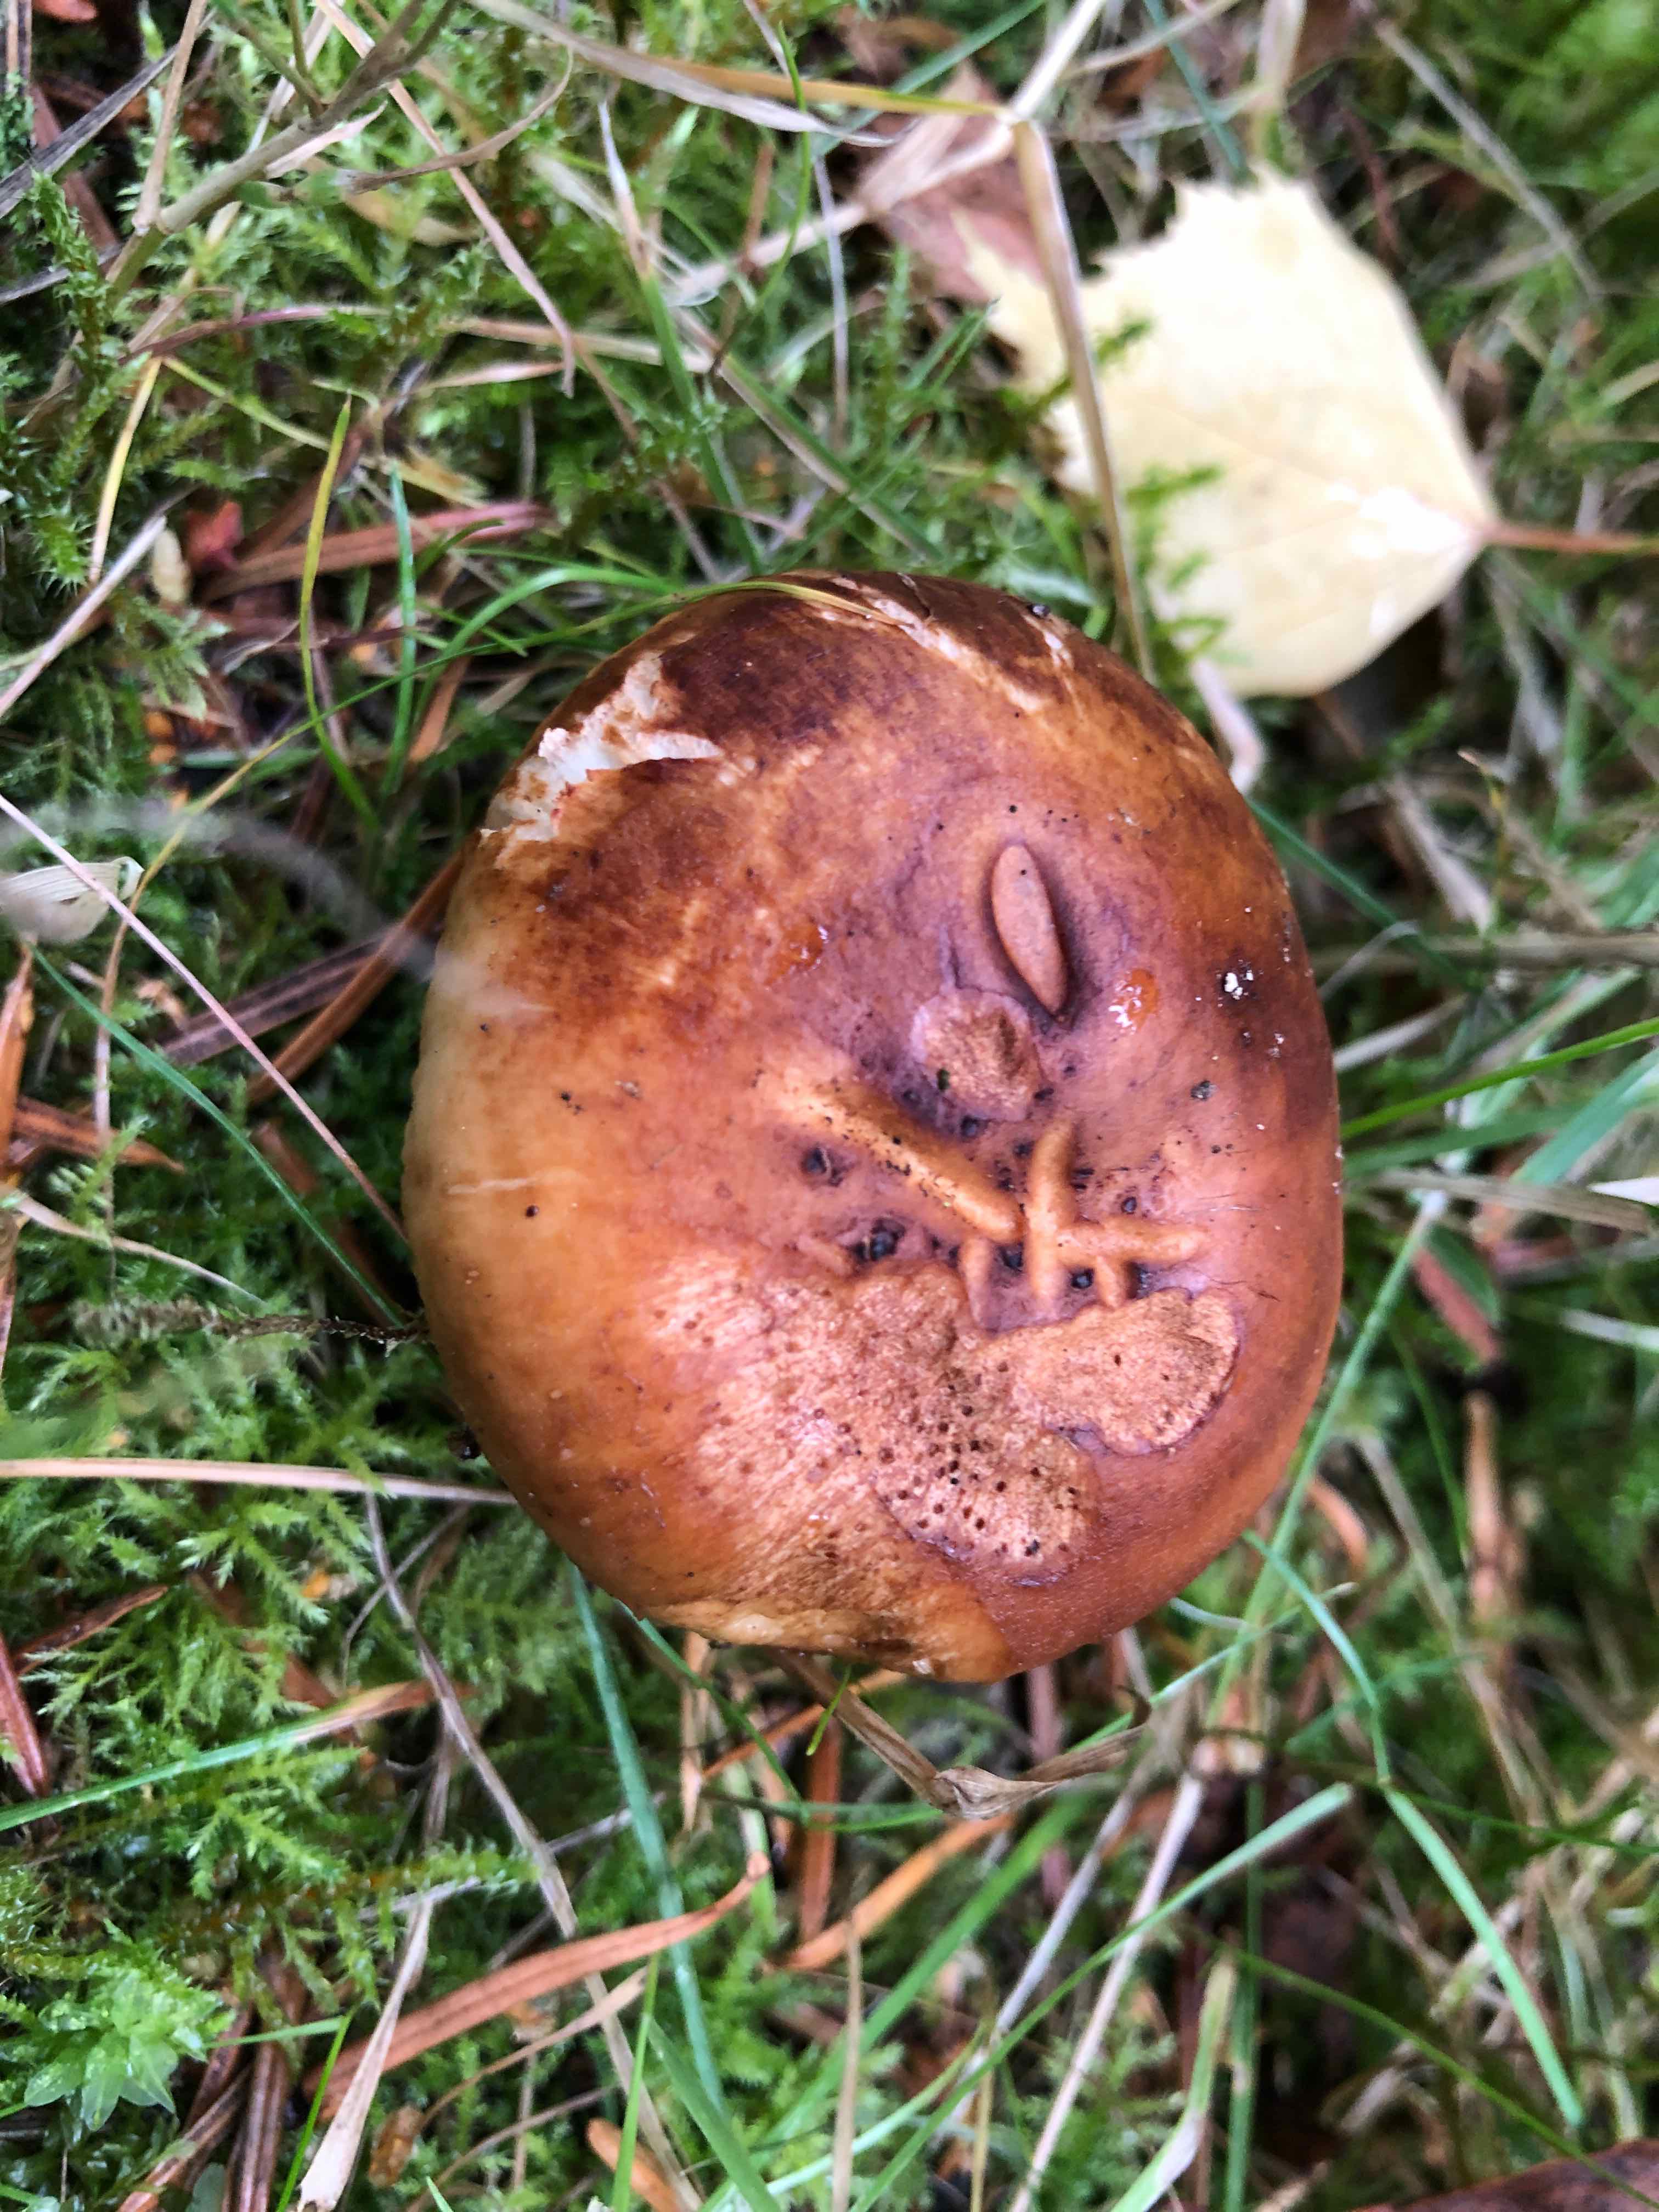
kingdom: Fungi
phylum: Basidiomycota
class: Agaricomycetes
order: Russulales
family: Russulaceae
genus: Russula
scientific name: Russula foetens
